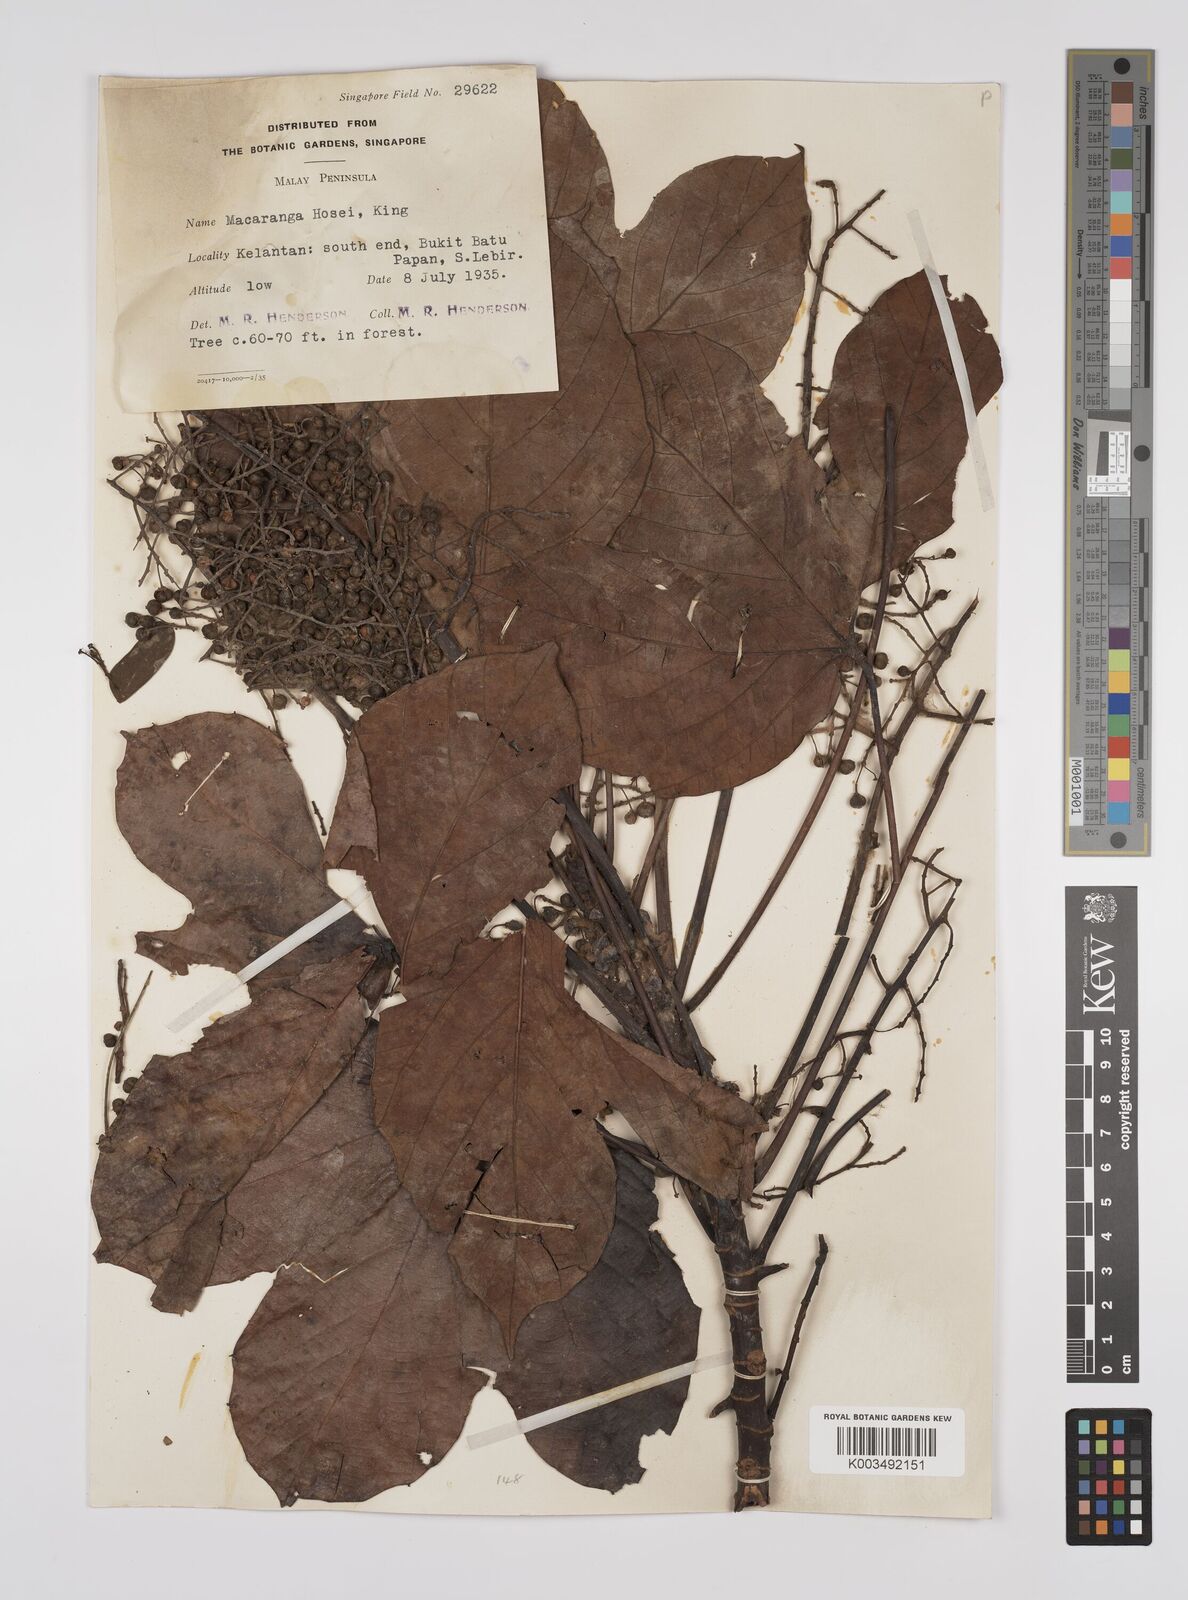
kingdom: Plantae
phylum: Tracheophyta
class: Magnoliopsida
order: Malpighiales
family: Euphorbiaceae
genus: Macaranga
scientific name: Macaranga hosei
